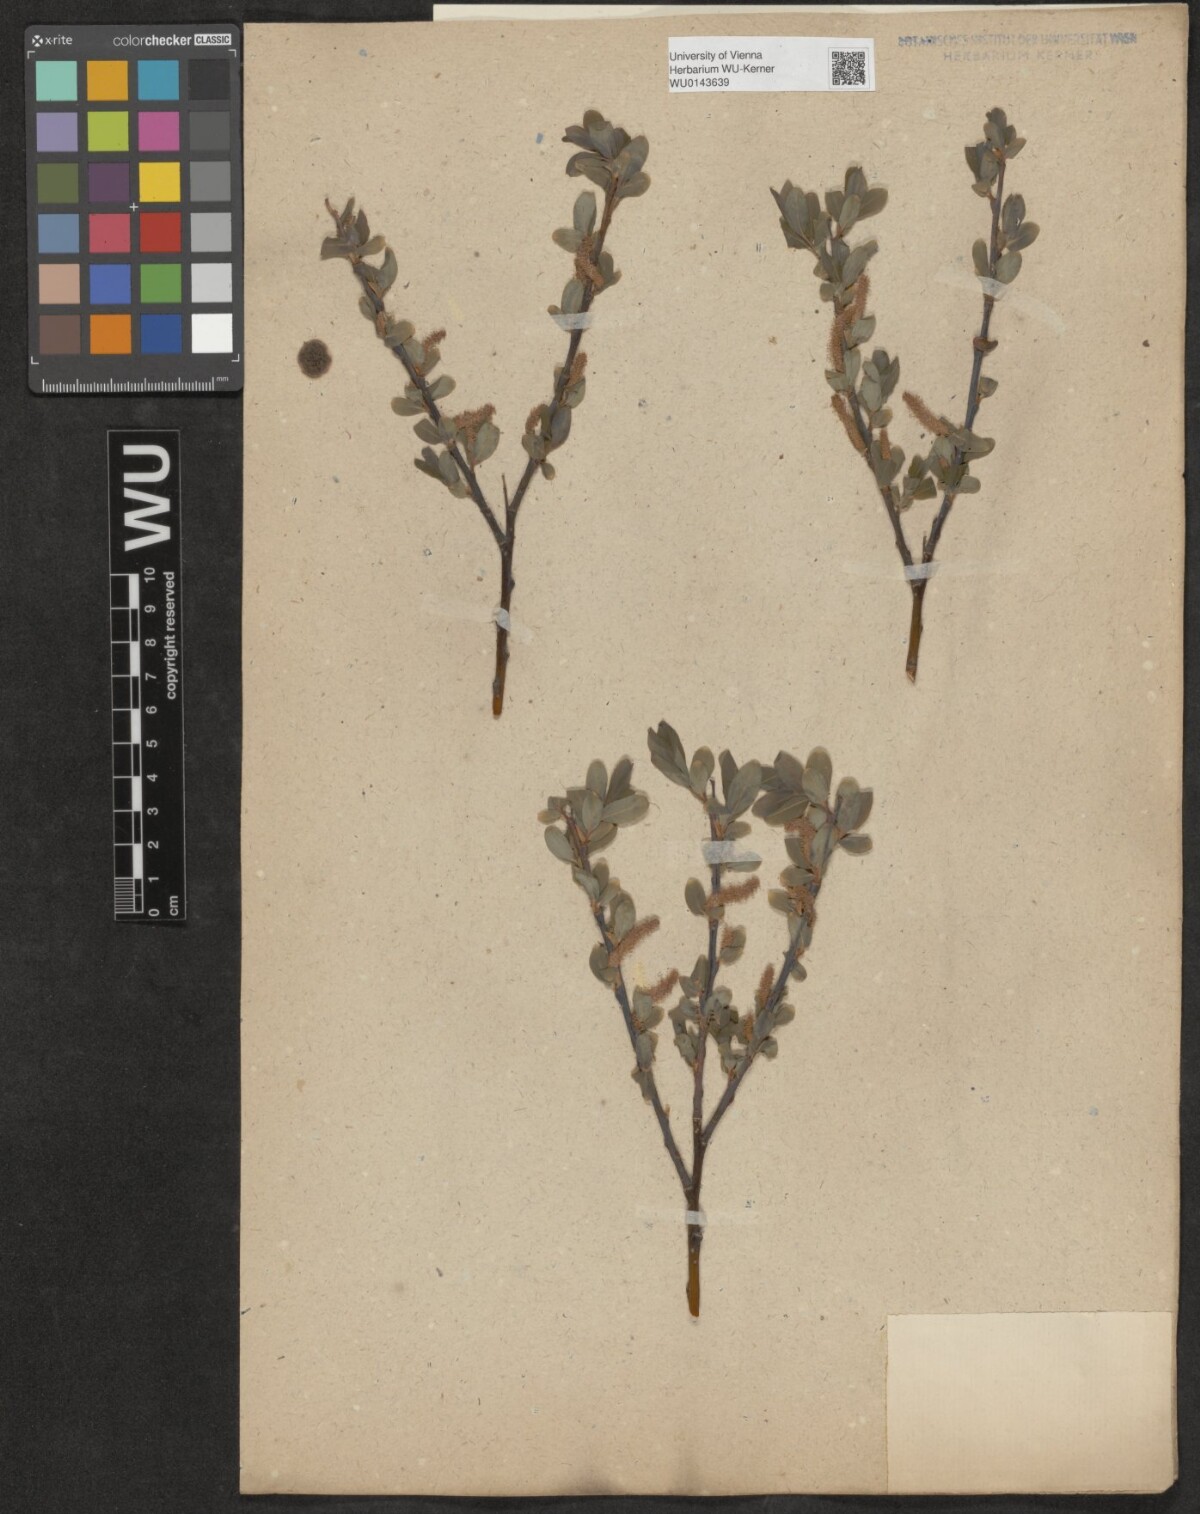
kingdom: Plantae
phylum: Tracheophyta
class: Magnoliopsida
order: Malpighiales
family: Salicaceae
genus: Salix
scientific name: Salix
